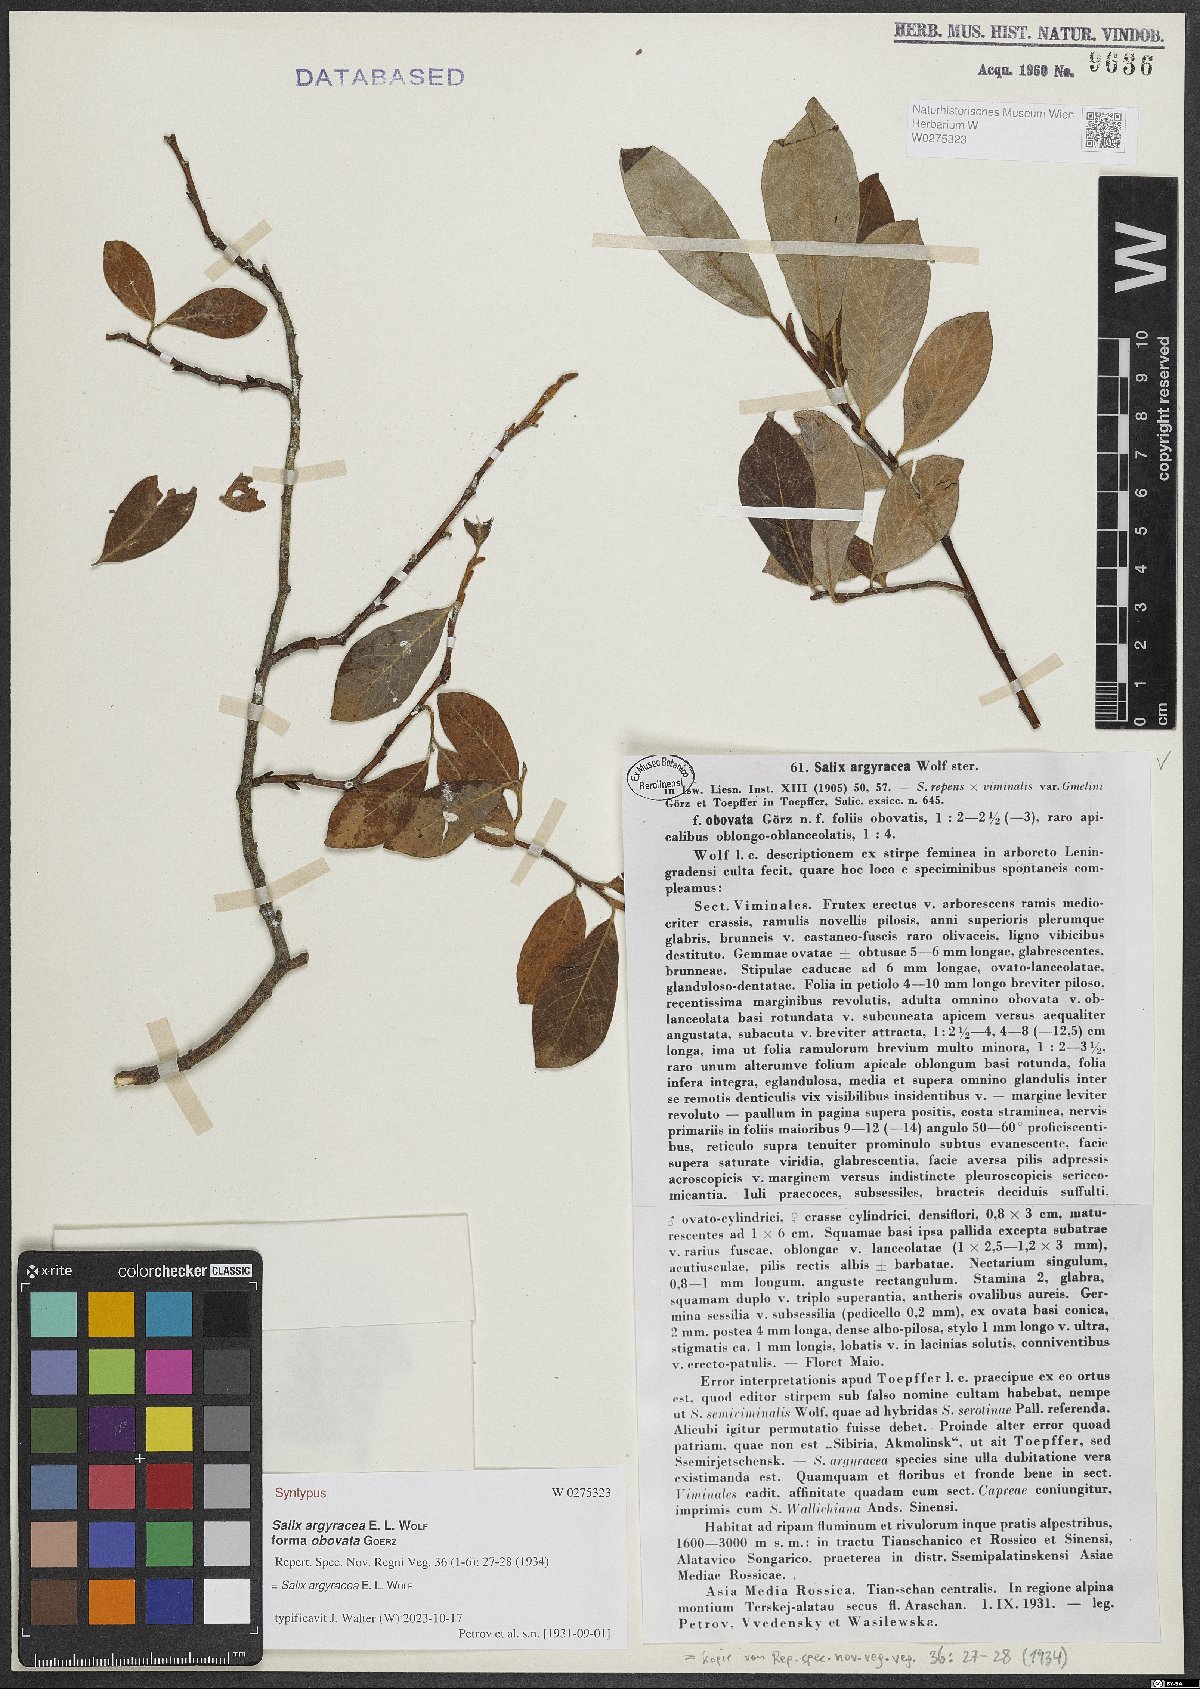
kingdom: Plantae
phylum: Tracheophyta
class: Magnoliopsida
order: Malpighiales
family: Salicaceae
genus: Salix
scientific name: Salix argyracea
